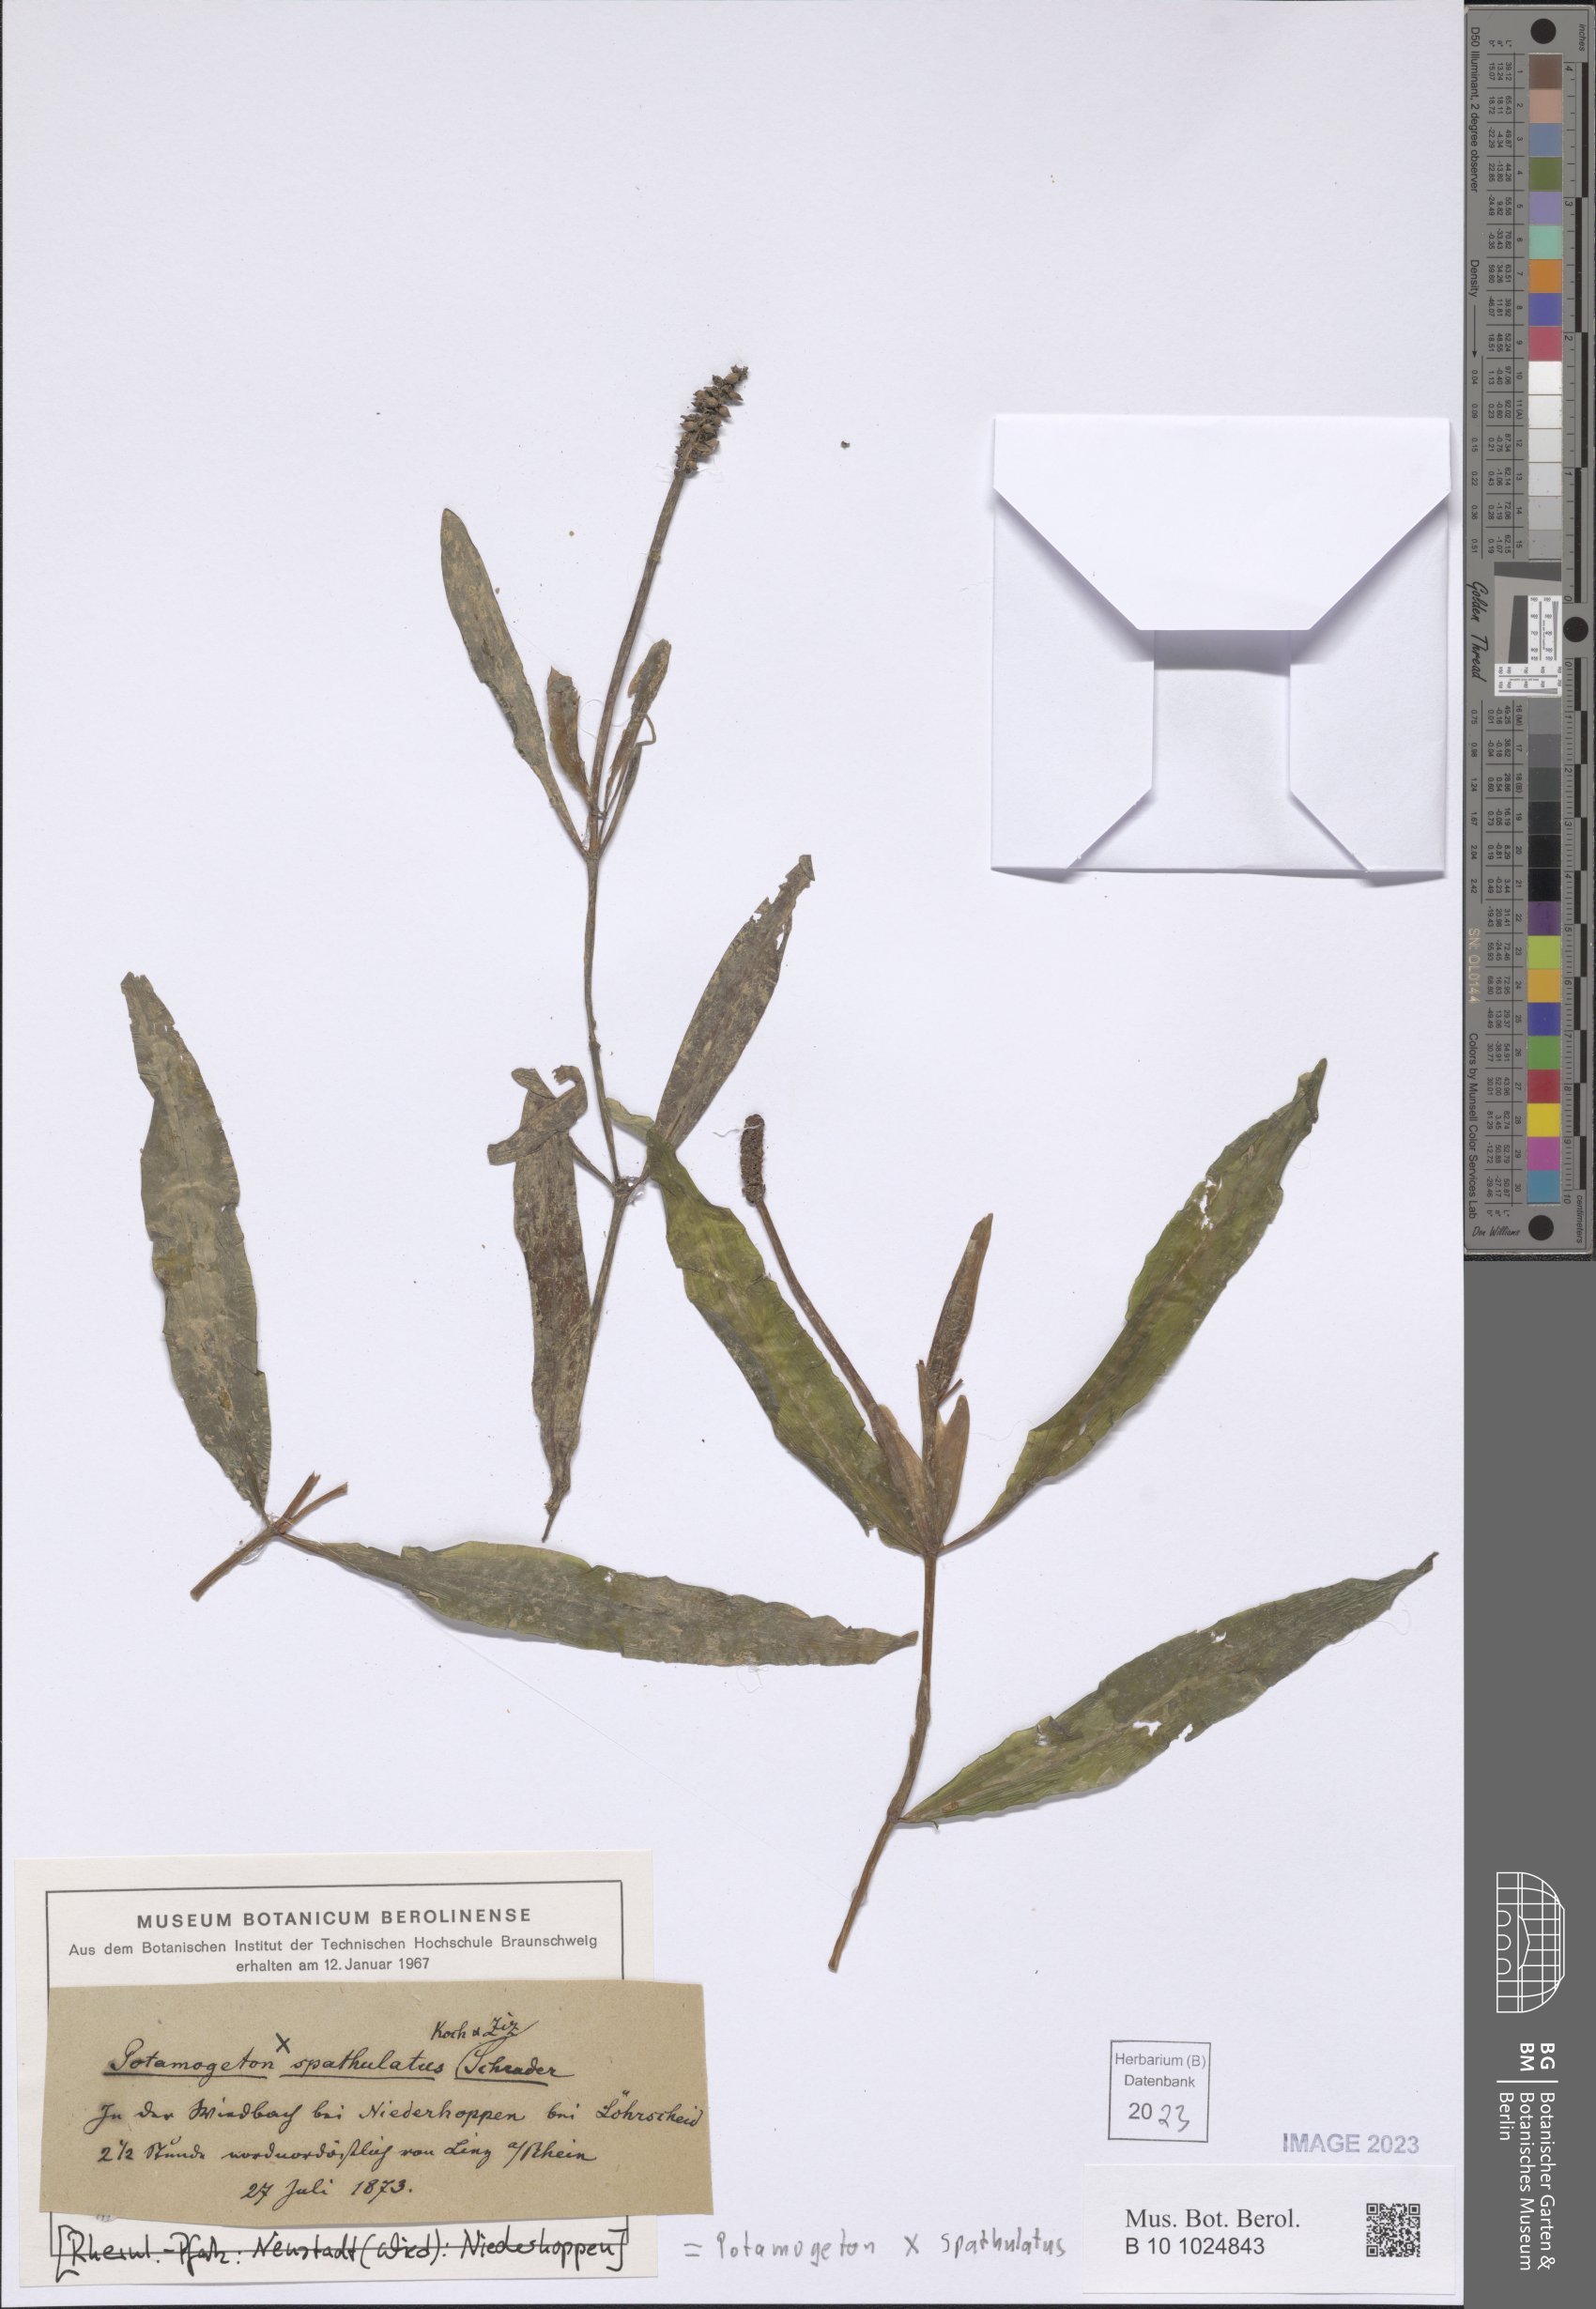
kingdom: Plantae
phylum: Tracheophyta
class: Liliopsida
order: Alismatales
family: Potamogetonaceae
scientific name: Potamogetonaceae
